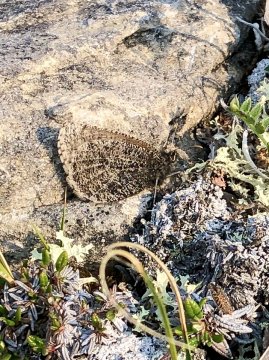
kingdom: Animalia
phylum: Arthropoda
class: Insecta
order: Lepidoptera
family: Nymphalidae
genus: Oeneis
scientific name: Oeneis melissa
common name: Melissa Arctic
